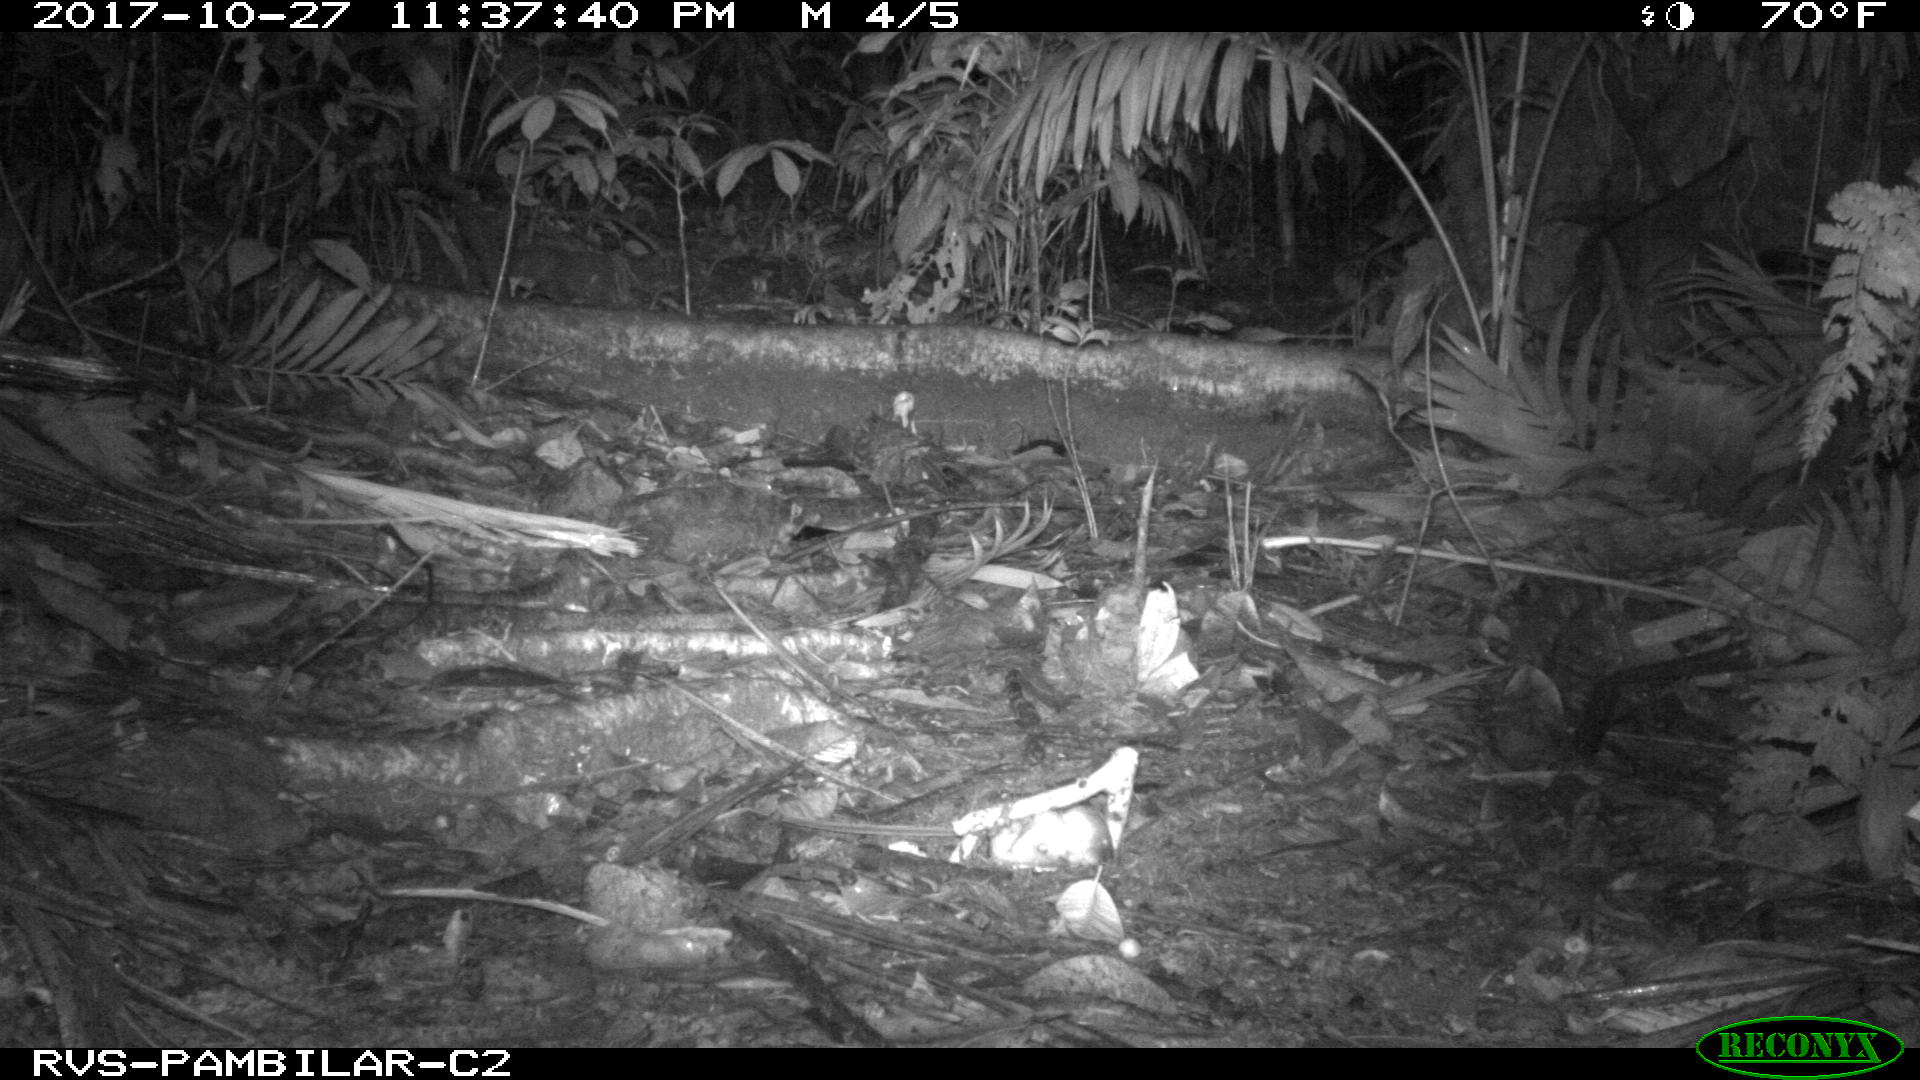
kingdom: Animalia
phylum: Chordata
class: Mammalia
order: Rodentia
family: Echimyidae
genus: Proechimys
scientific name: Proechimys
